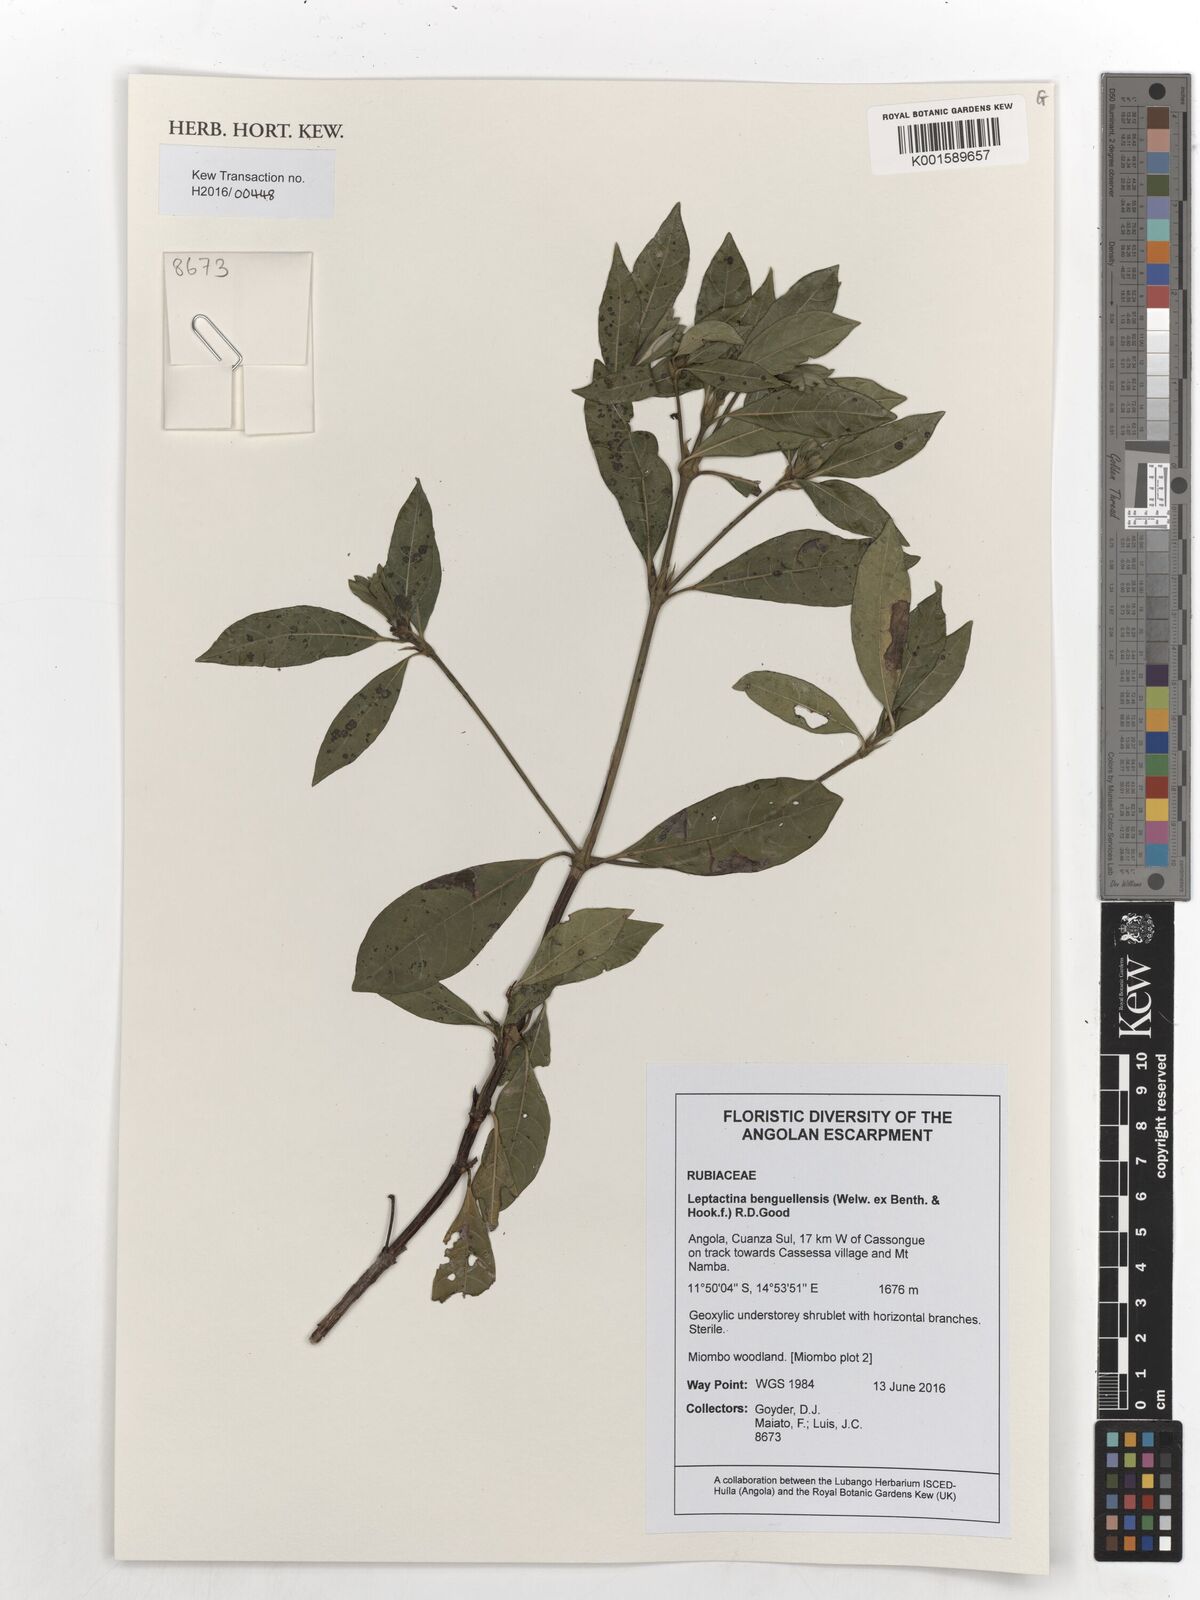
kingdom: Plantae
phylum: Tracheophyta
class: Magnoliopsida
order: Gentianales
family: Rubiaceae
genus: Leptactina
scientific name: Leptactina benguelensis
